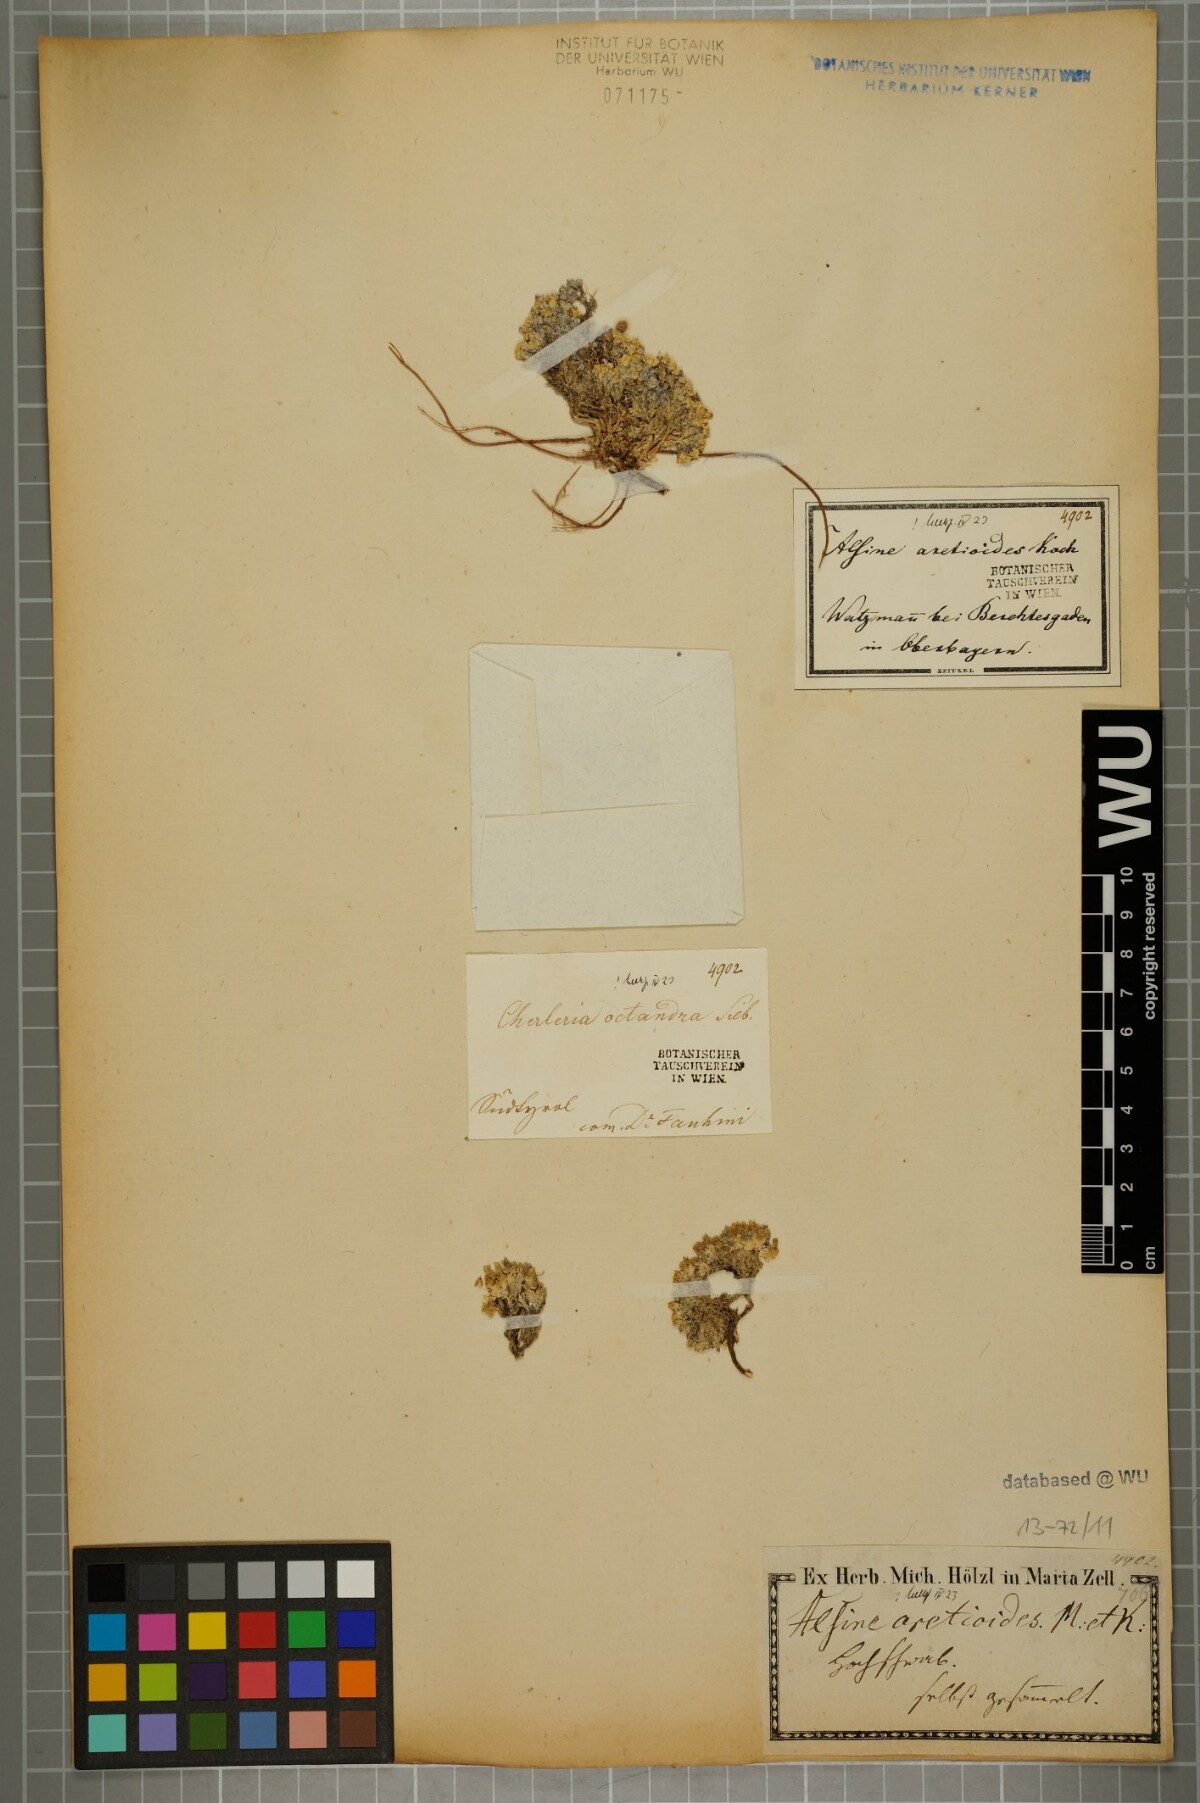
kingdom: Plantae
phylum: Tracheophyta
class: Magnoliopsida
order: Caryophyllales
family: Caryophyllaceae
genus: Facchinia
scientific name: Facchinia cherlerioides
